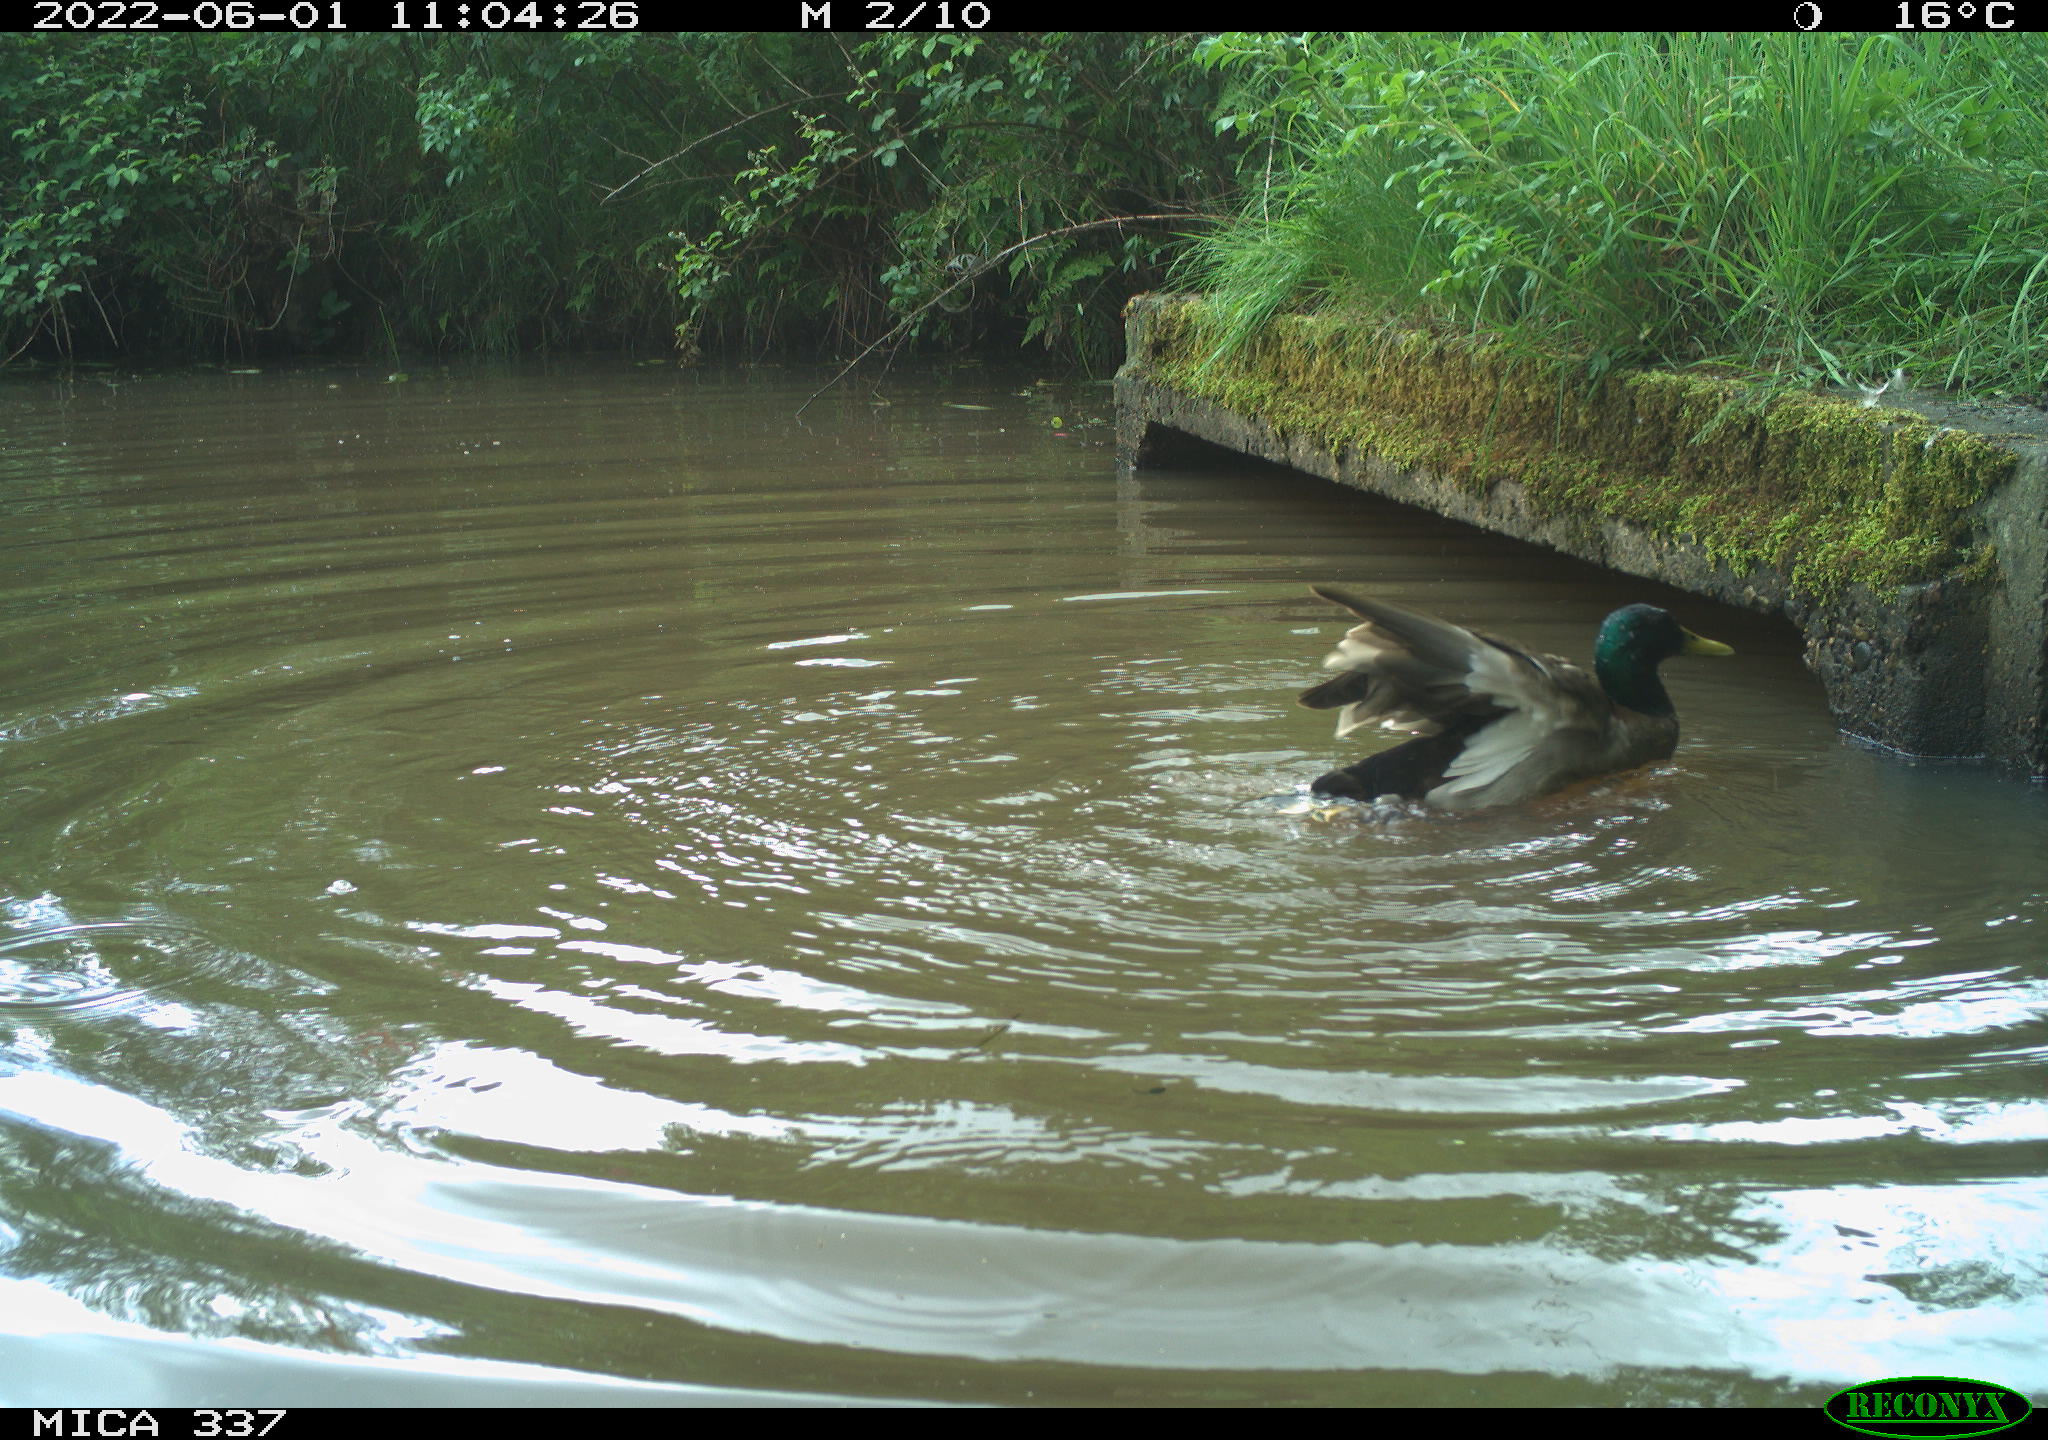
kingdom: Animalia
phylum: Chordata
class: Aves
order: Anseriformes
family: Anatidae
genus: Anas
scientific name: Anas platyrhynchos
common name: Mallard
